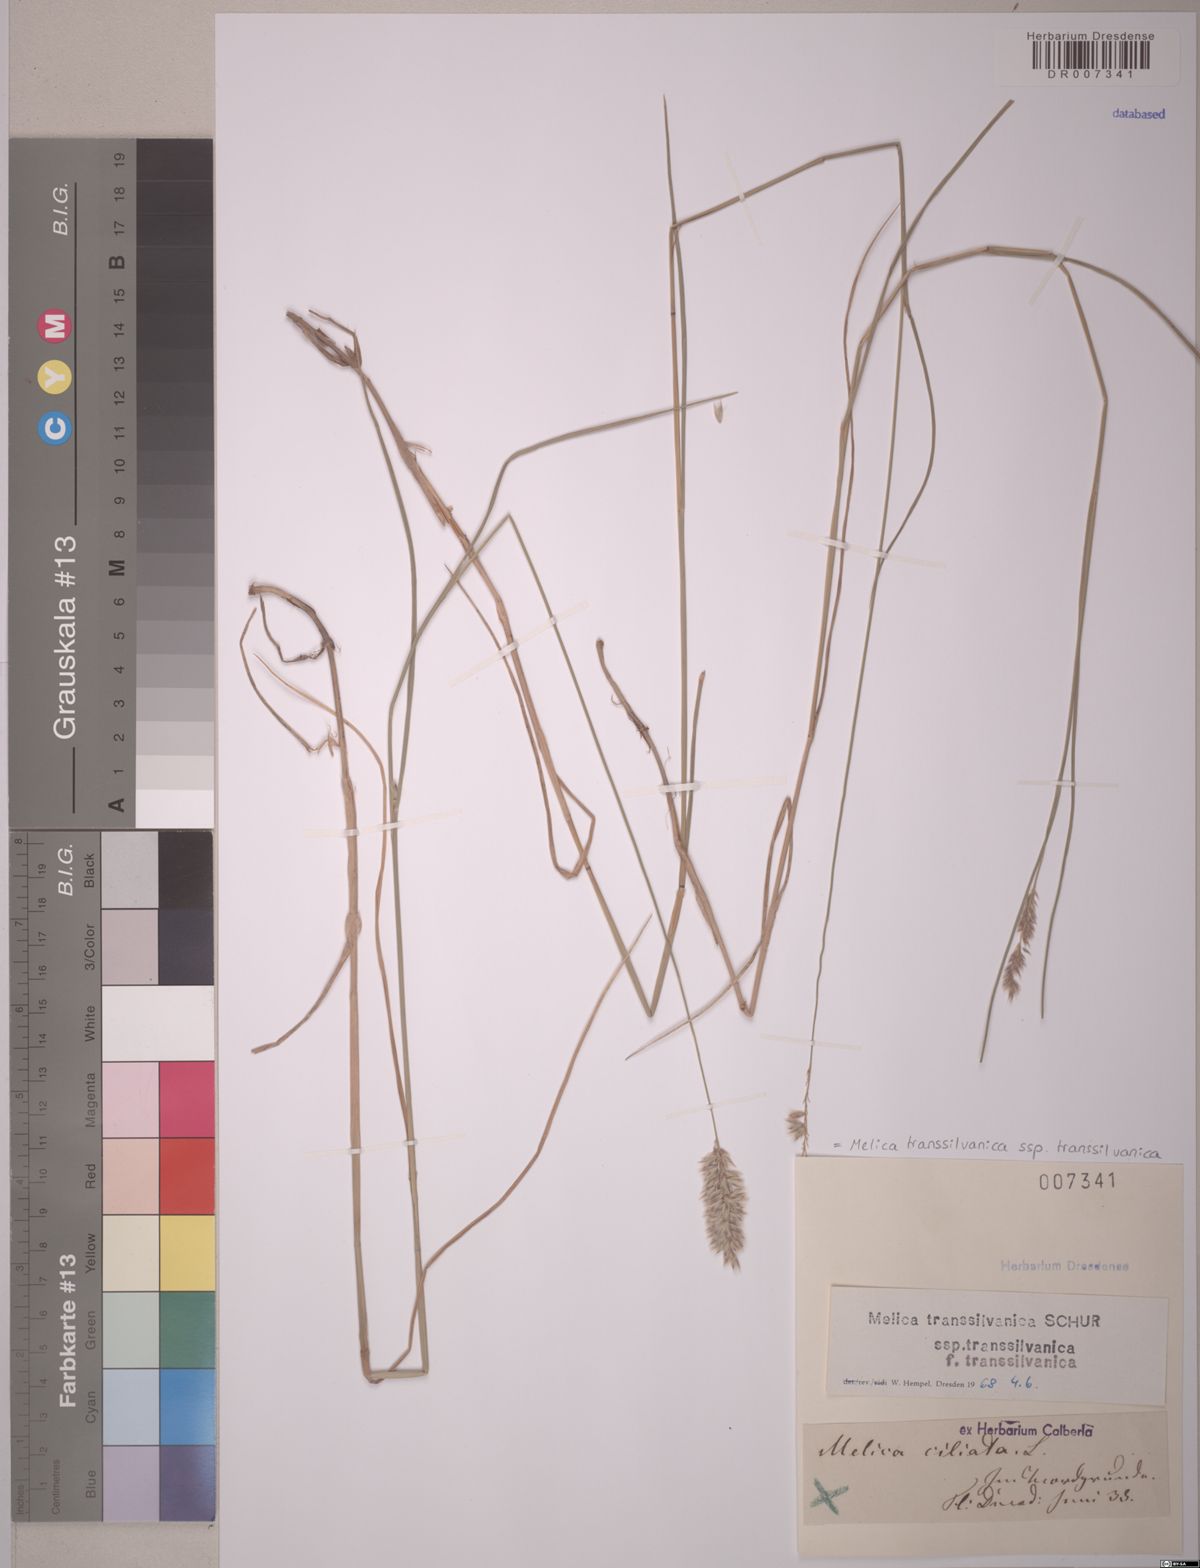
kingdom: Plantae
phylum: Tracheophyta
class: Liliopsida
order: Poales
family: Poaceae
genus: Melica
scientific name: Melica transsilvanica
